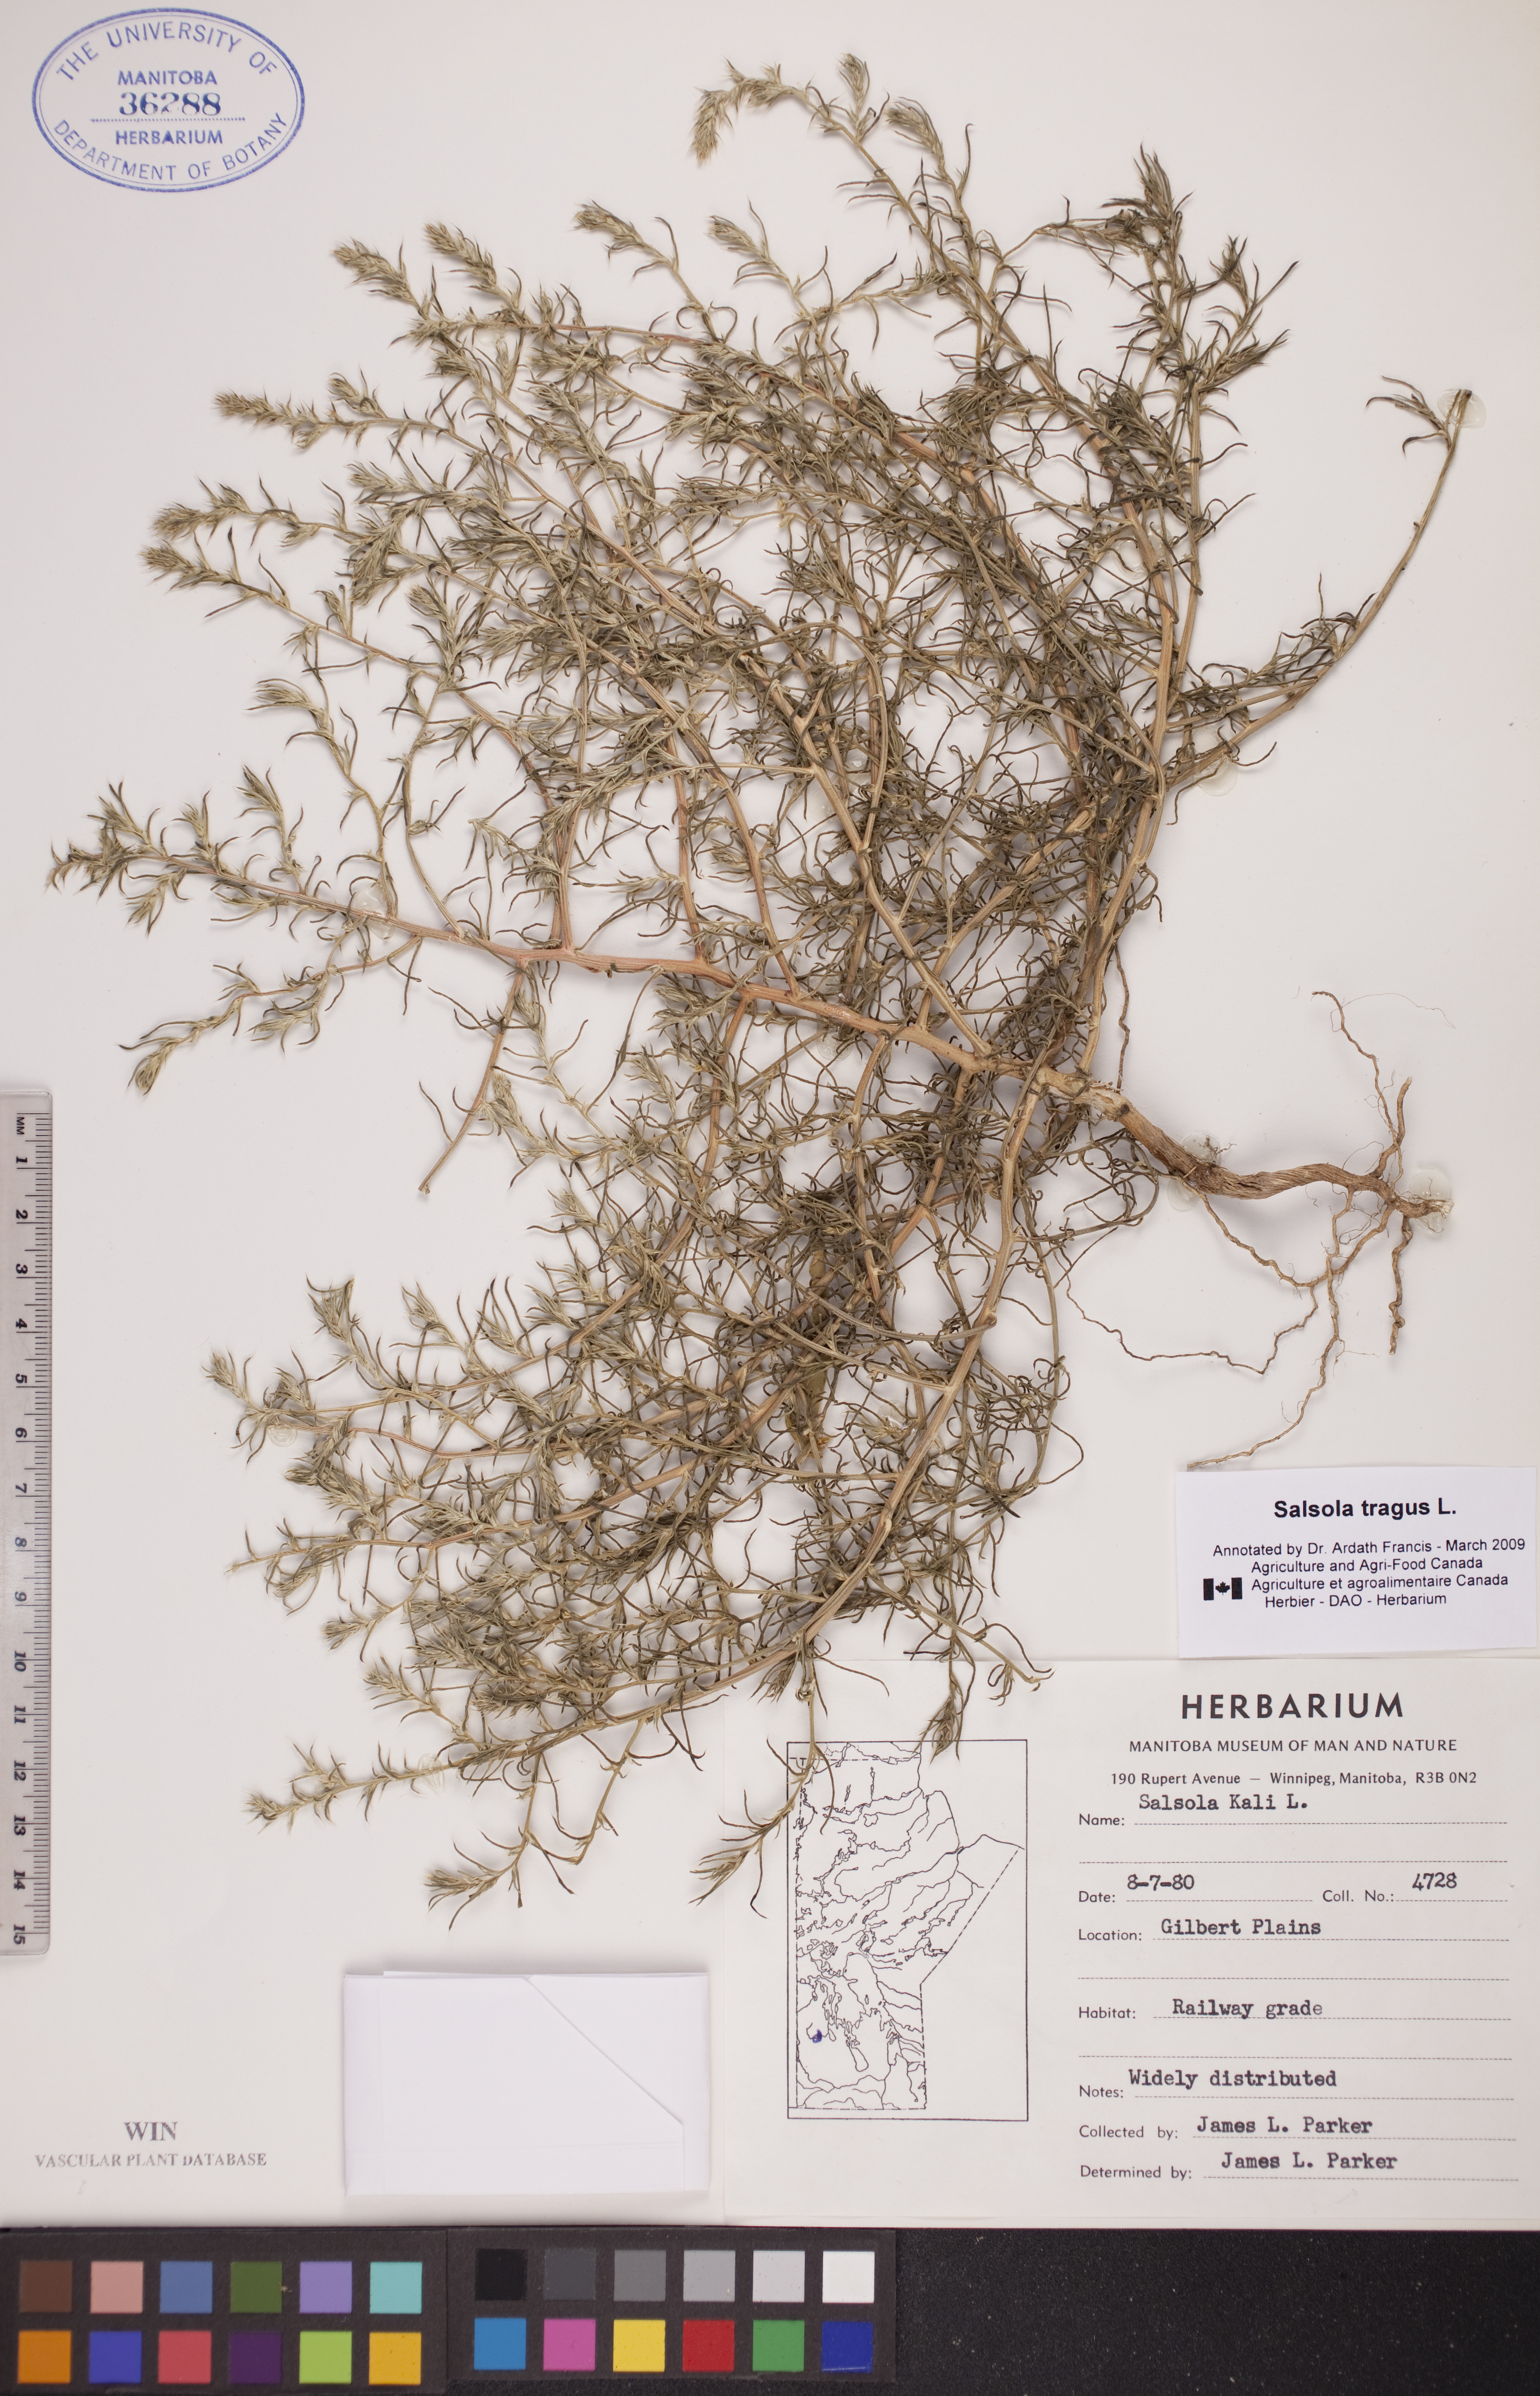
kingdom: Plantae
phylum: Tracheophyta
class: Magnoliopsida
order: Caryophyllales
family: Amaranthaceae
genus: Salsola
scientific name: Salsola tragus
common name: Prickly russian thistle
